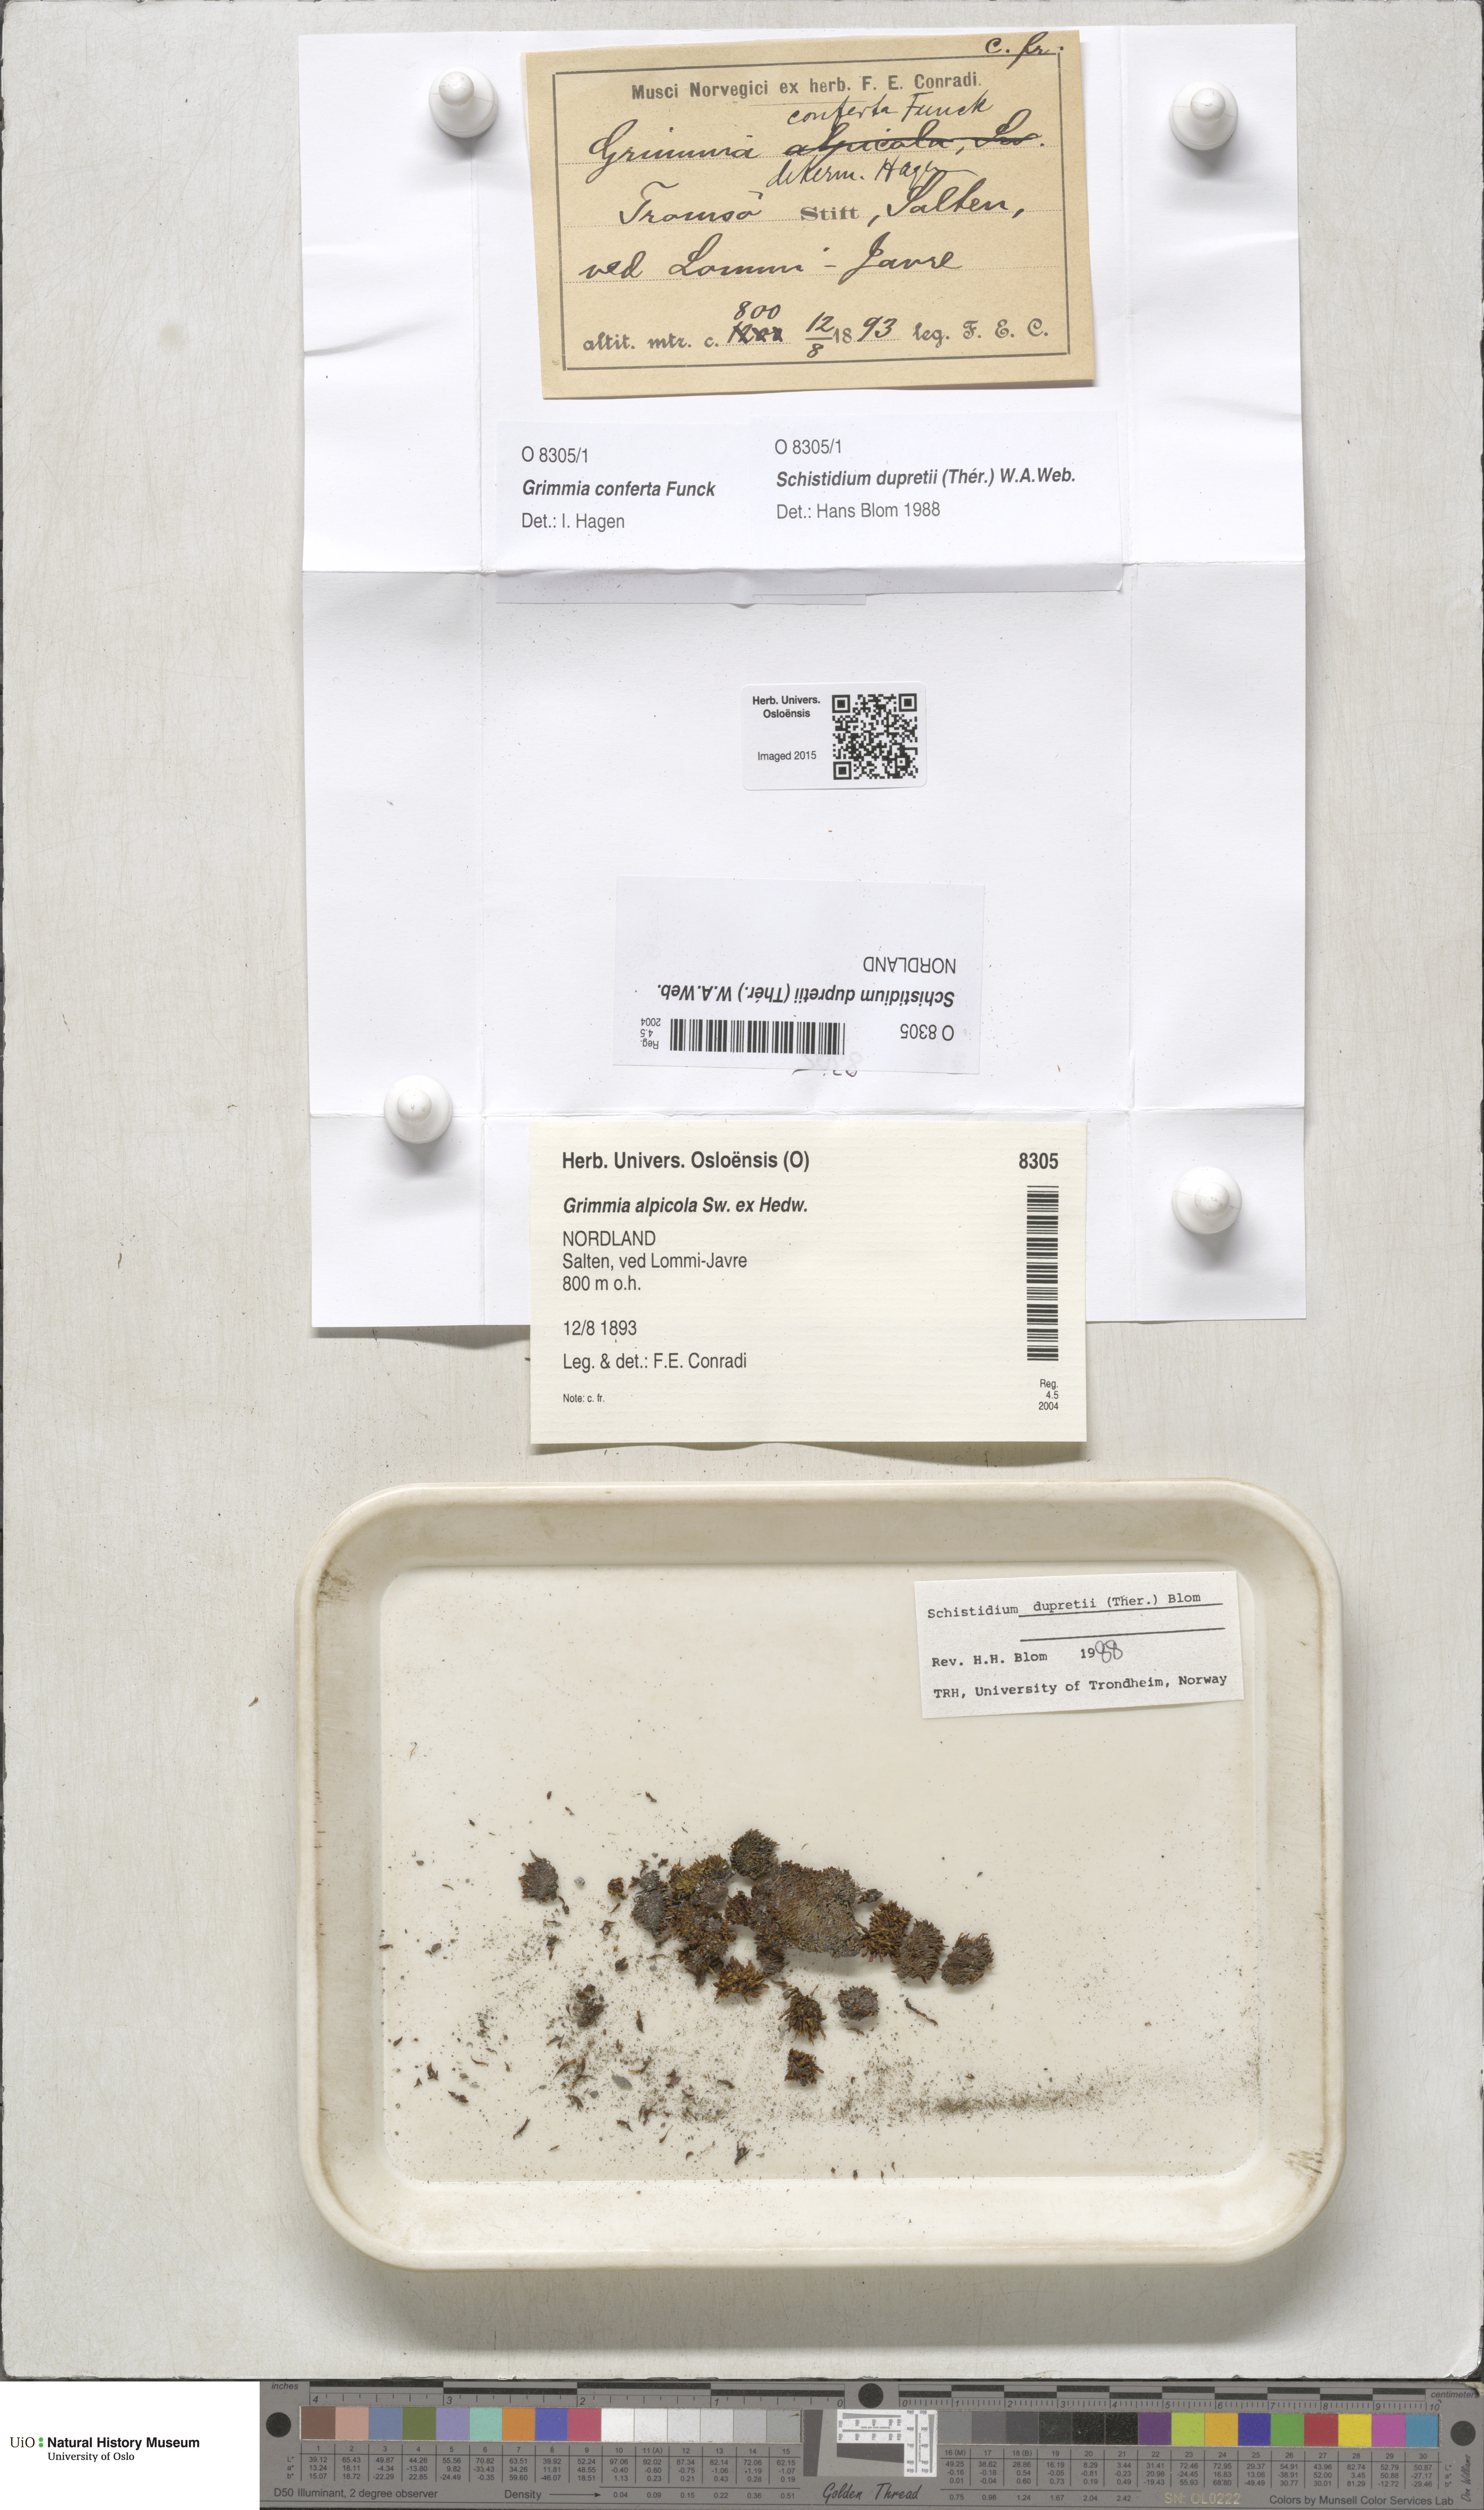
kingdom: Plantae
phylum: Bryophyta
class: Bryopsida
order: Grimmiales
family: Grimmiaceae
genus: Schistidium
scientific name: Schistidium dupretii
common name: Dupret's bloom moss
